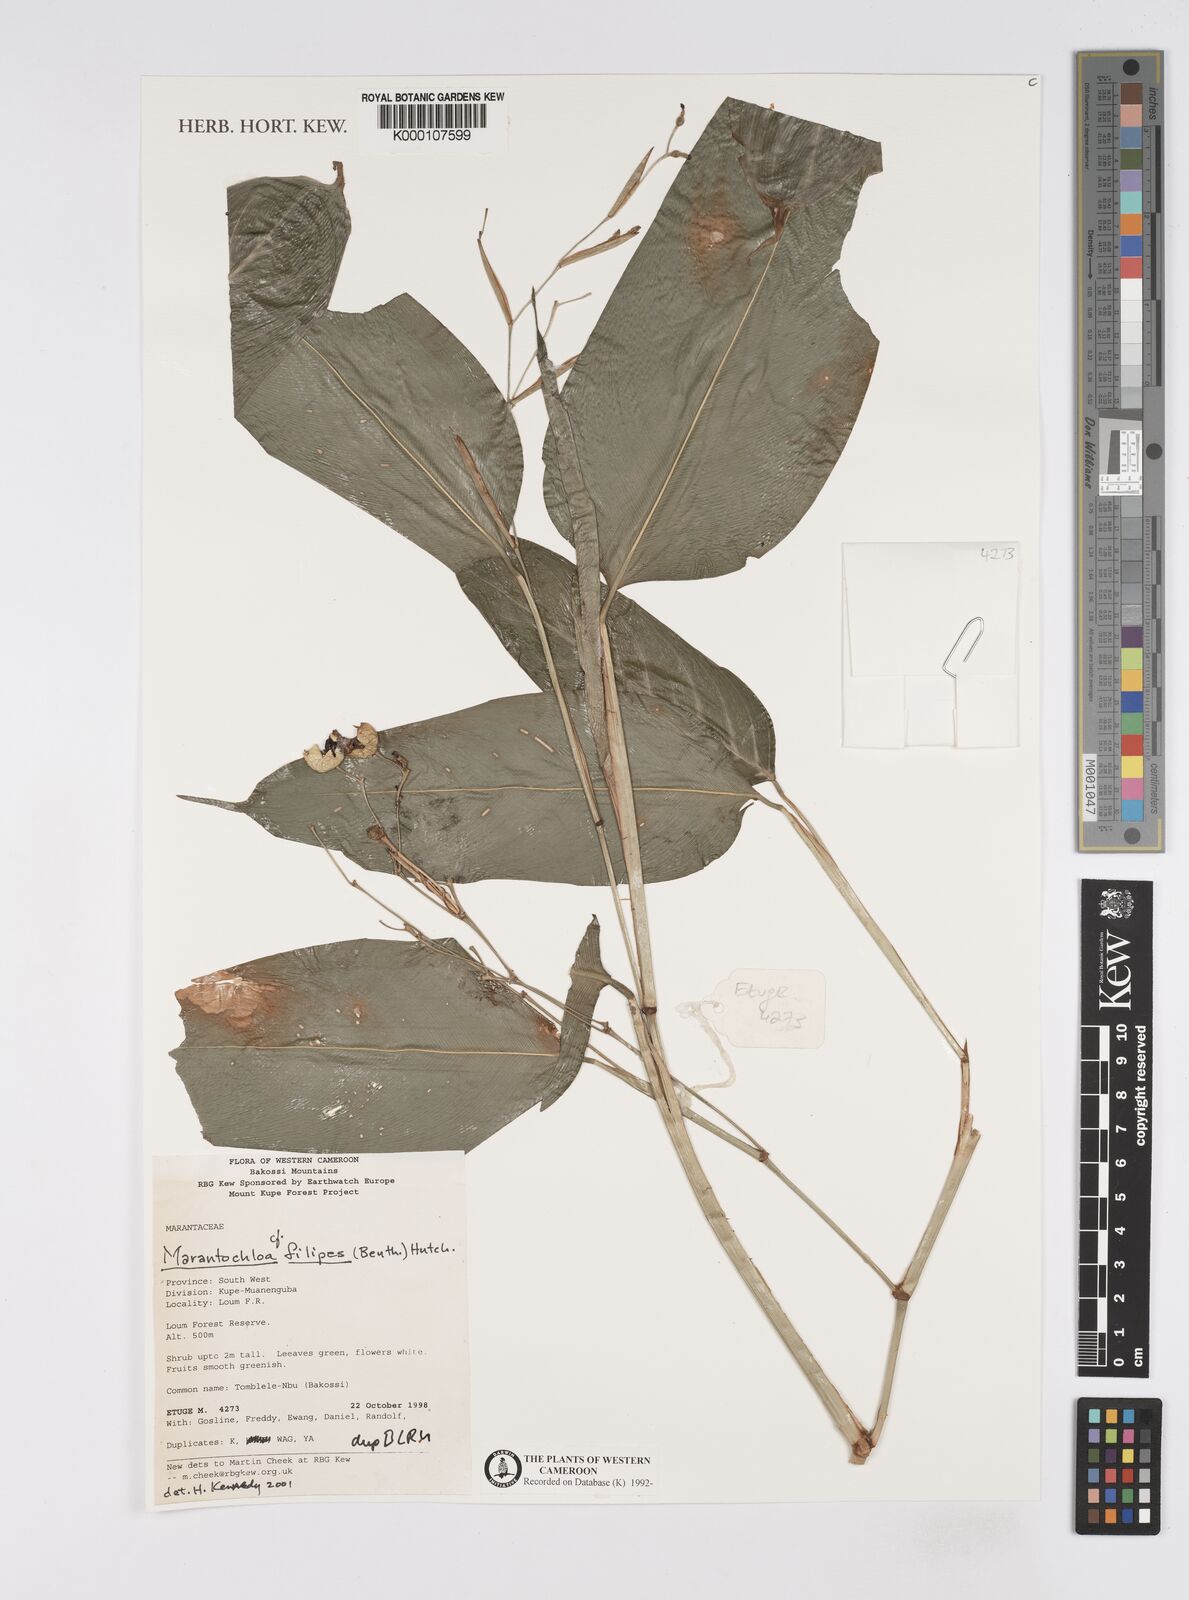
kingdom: Plantae
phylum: Tracheophyta
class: Liliopsida
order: Zingiberales
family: Marantaceae
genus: Marantochloa
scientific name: Marantochloa filipes
